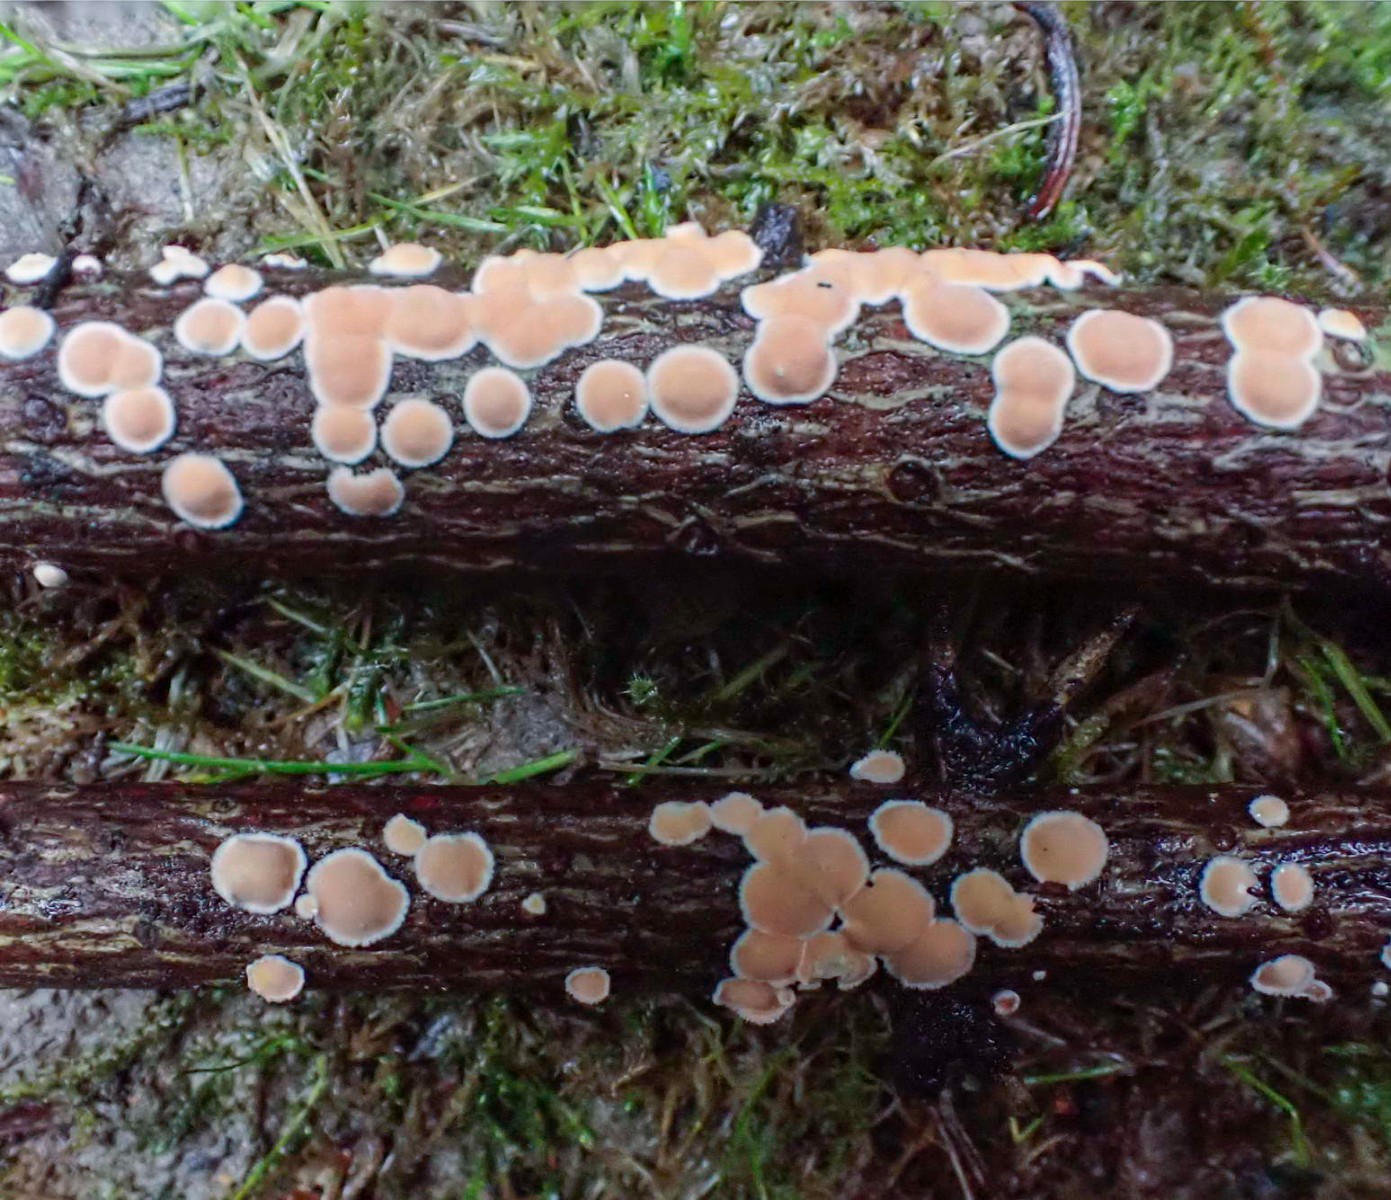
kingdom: Fungi
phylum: Basidiomycota
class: Agaricomycetes
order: Russulales
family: Stereaceae
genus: Aleurodiscus
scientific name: Aleurodiscus amorphus
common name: orange skiveskorpe
